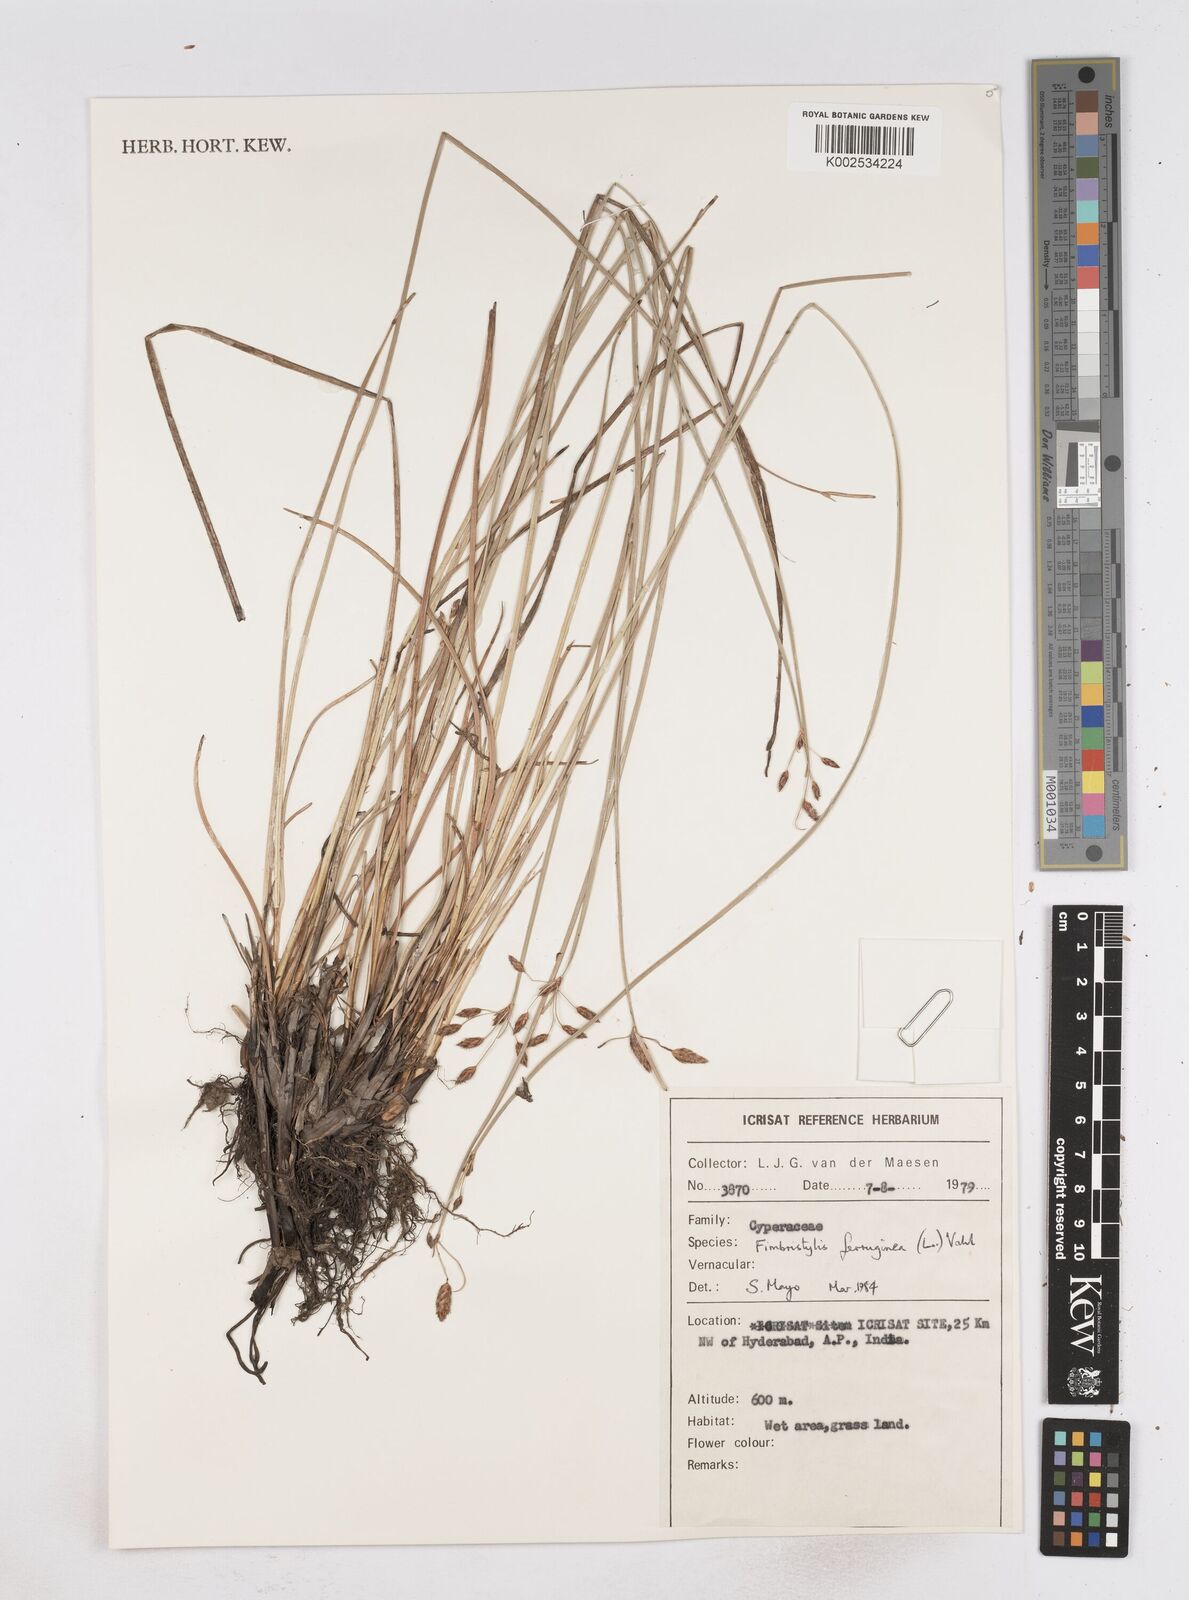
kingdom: Plantae
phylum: Tracheophyta
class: Liliopsida
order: Poales
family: Cyperaceae
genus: Fimbristylis
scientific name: Fimbristylis ferruginea
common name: West indian fimbry
